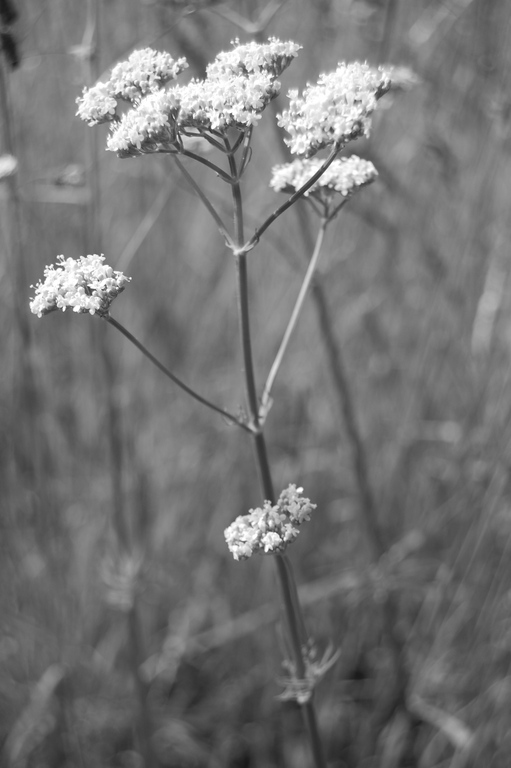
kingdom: Plantae
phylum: Tracheophyta
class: Magnoliopsida
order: Dipsacales
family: Caprifoliaceae
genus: Valeriana
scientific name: Valeriana officinalis
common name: Common valerian
